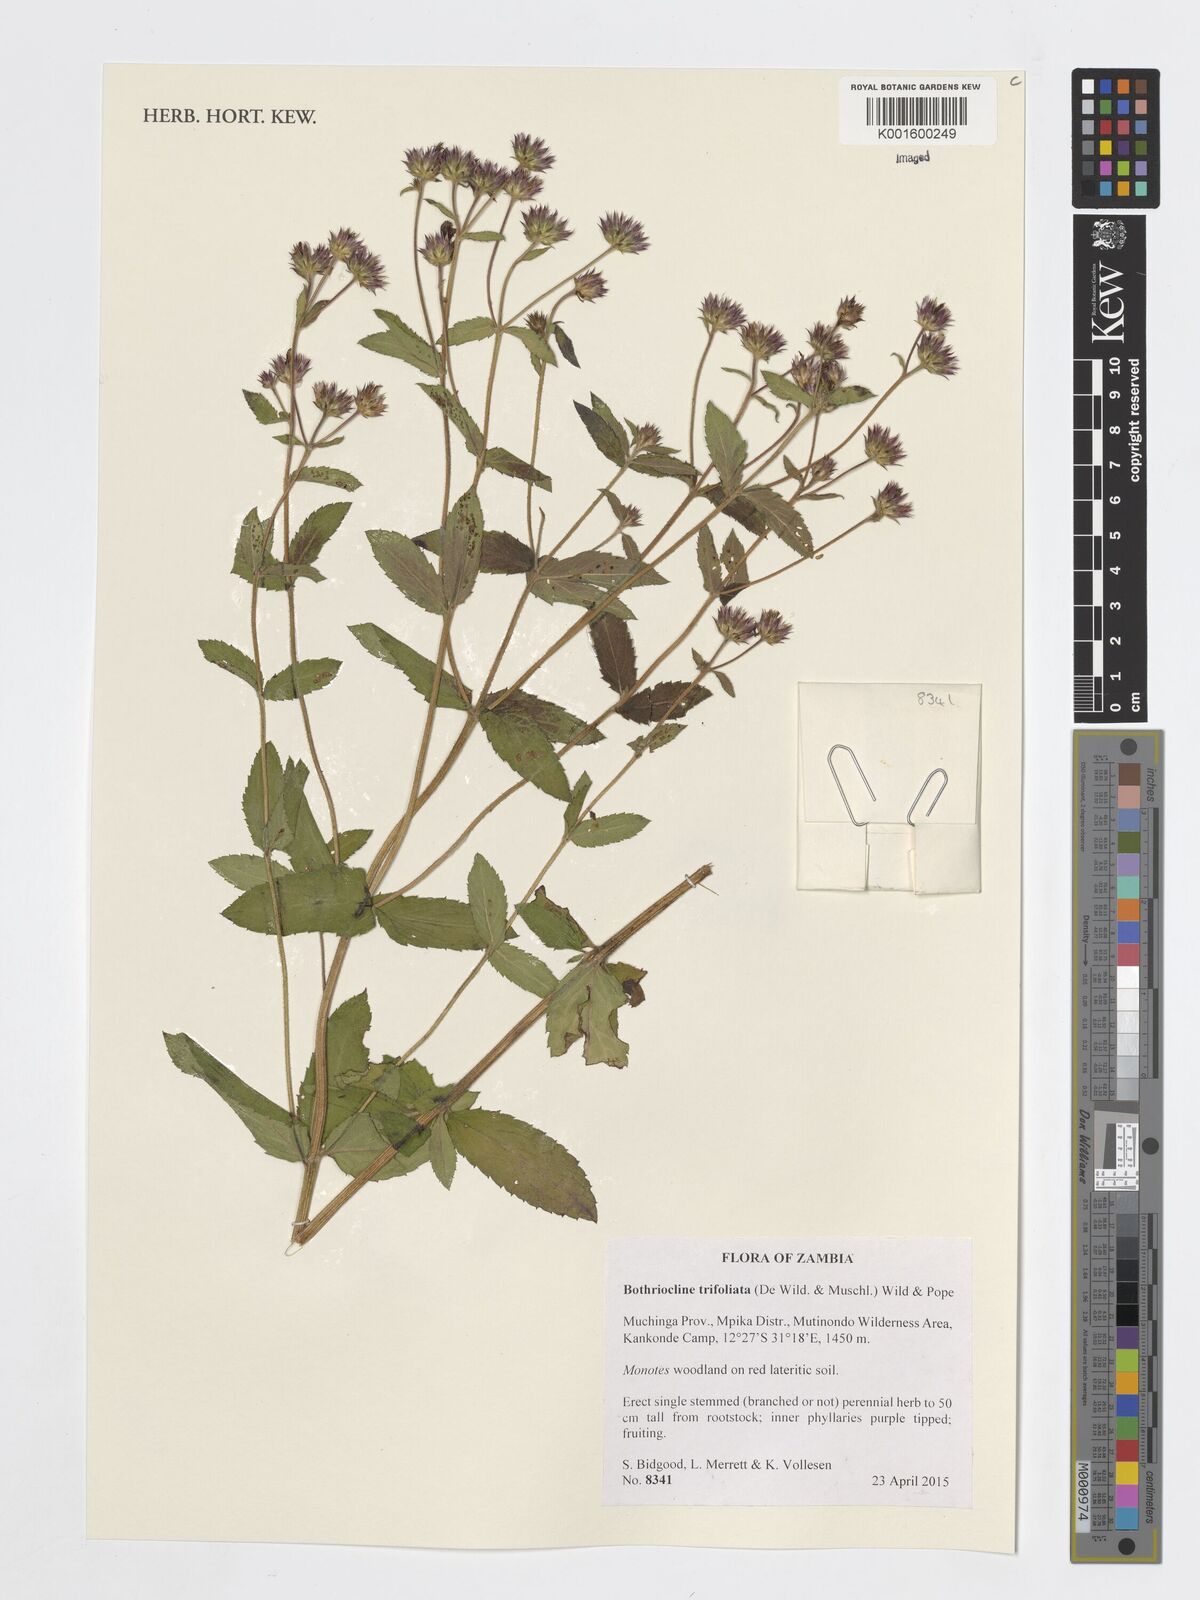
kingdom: Plantae
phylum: Tracheophyta
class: Magnoliopsida
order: Asterales
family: Asteraceae
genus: Bothriocline
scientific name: Bothriocline trifoliata
